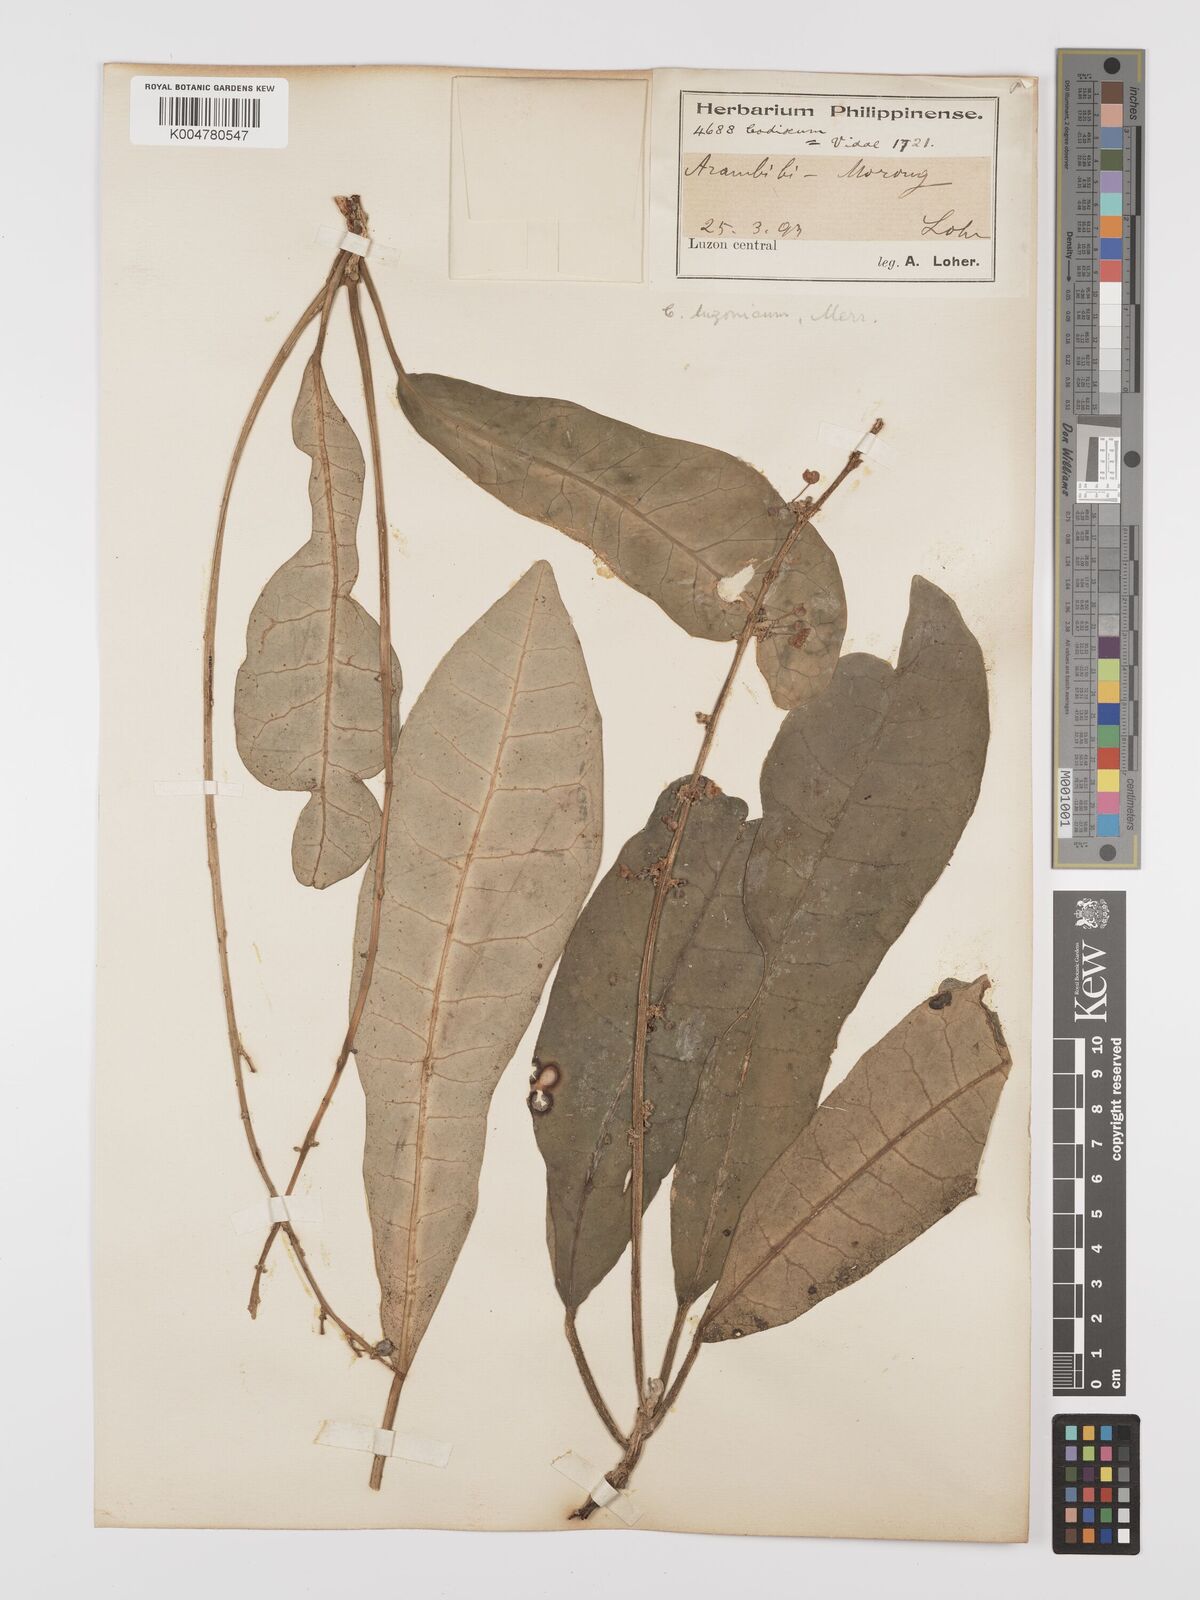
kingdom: Plantae
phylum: Tracheophyta
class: Magnoliopsida
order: Malpighiales
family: Euphorbiaceae
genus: Codiaeum
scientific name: Codiaeum luzonicum
